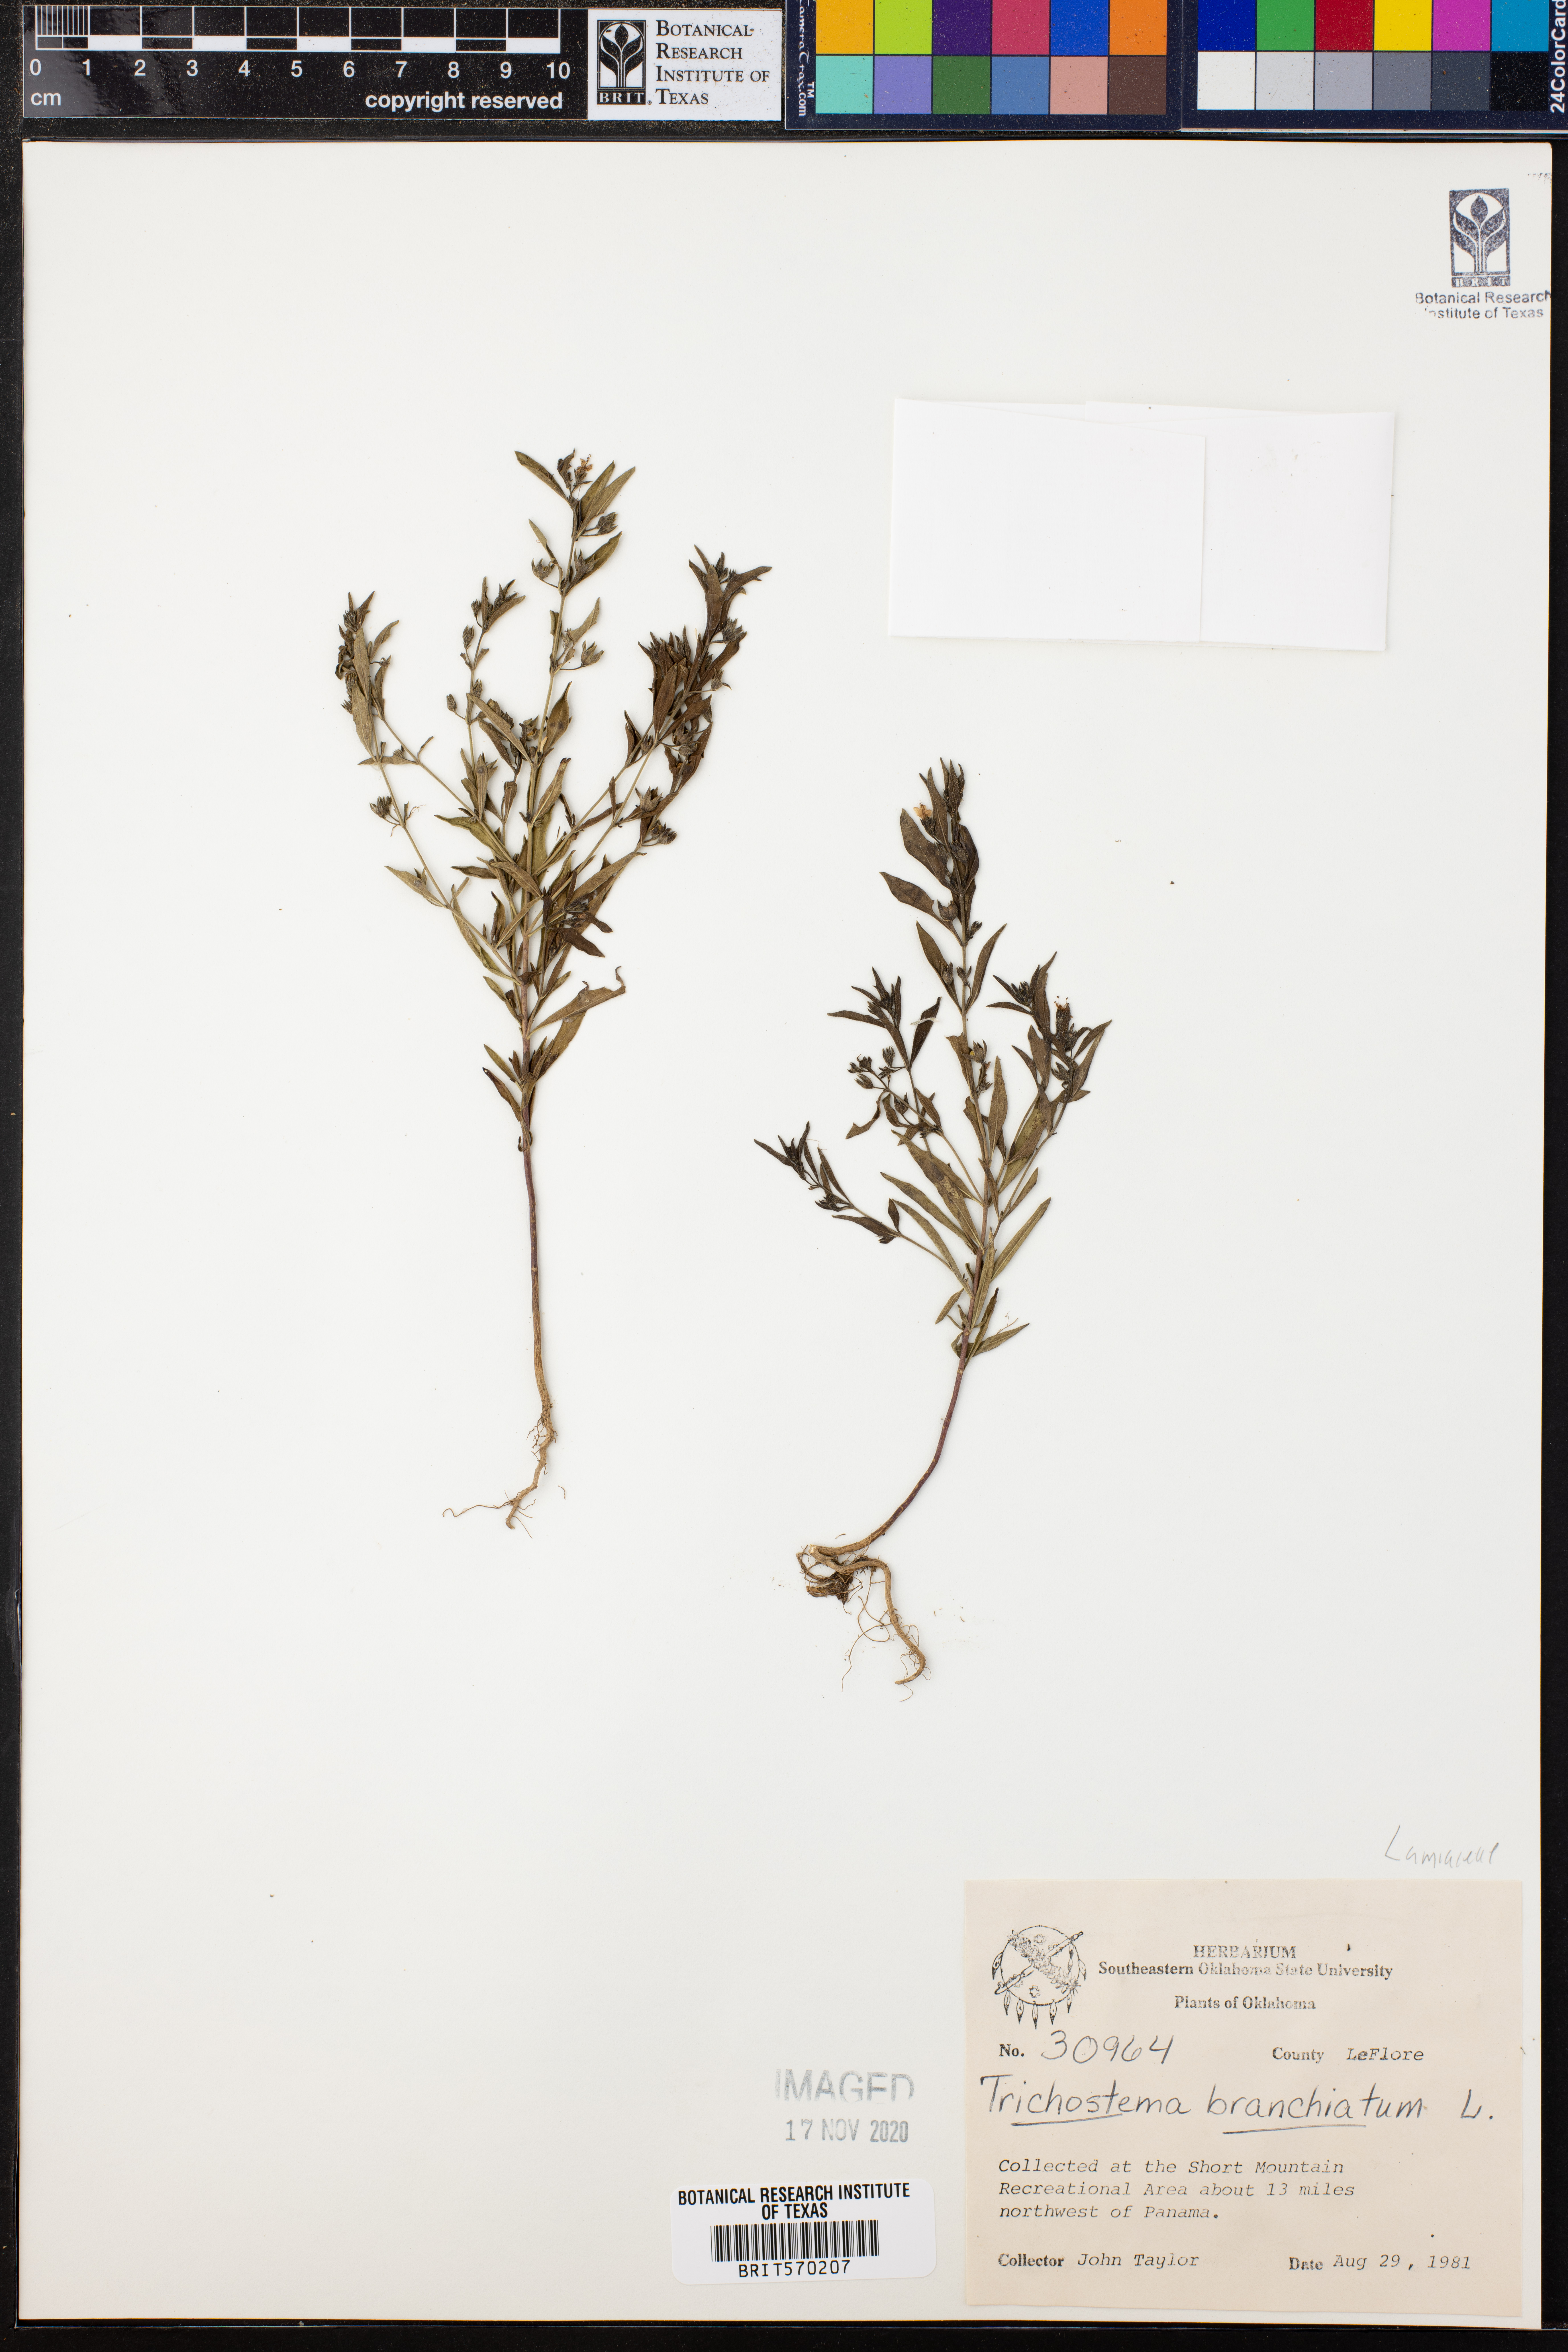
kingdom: Plantae
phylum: Tracheophyta
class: Magnoliopsida
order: Lamiales
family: Lamiaceae
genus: Trichostema
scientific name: Trichostema brachiatum
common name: False pennyroyal
